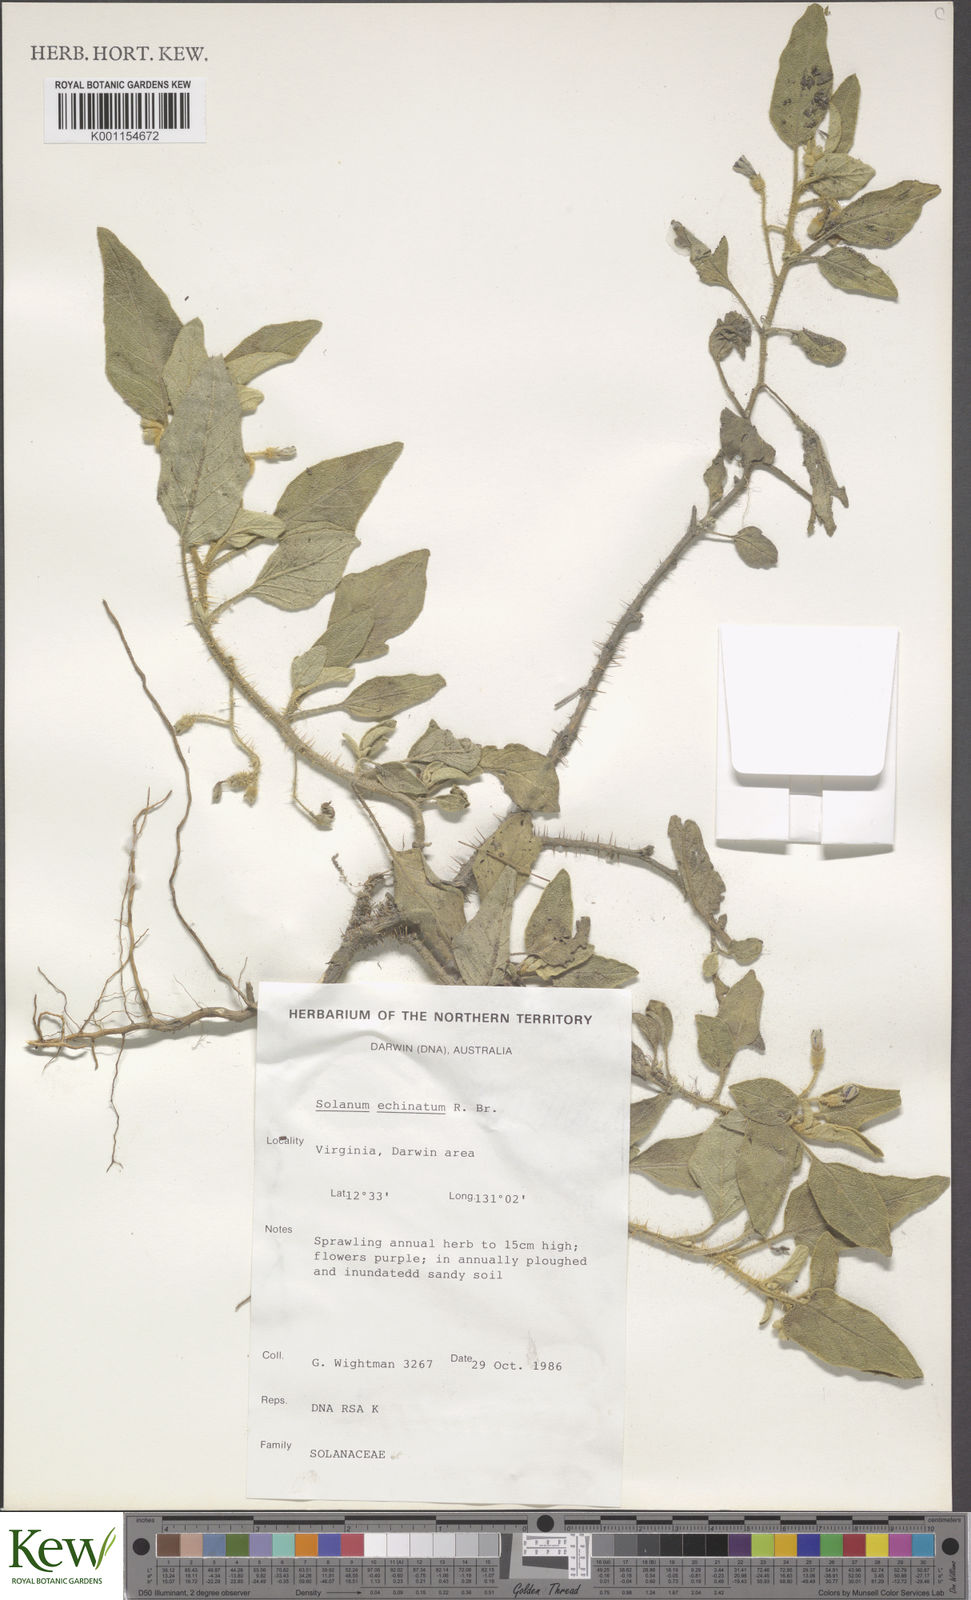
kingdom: Plantae
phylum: Tracheophyta
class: Magnoliopsida
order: Solanales
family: Solanaceae
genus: Solanum
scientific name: Solanum echinatum
